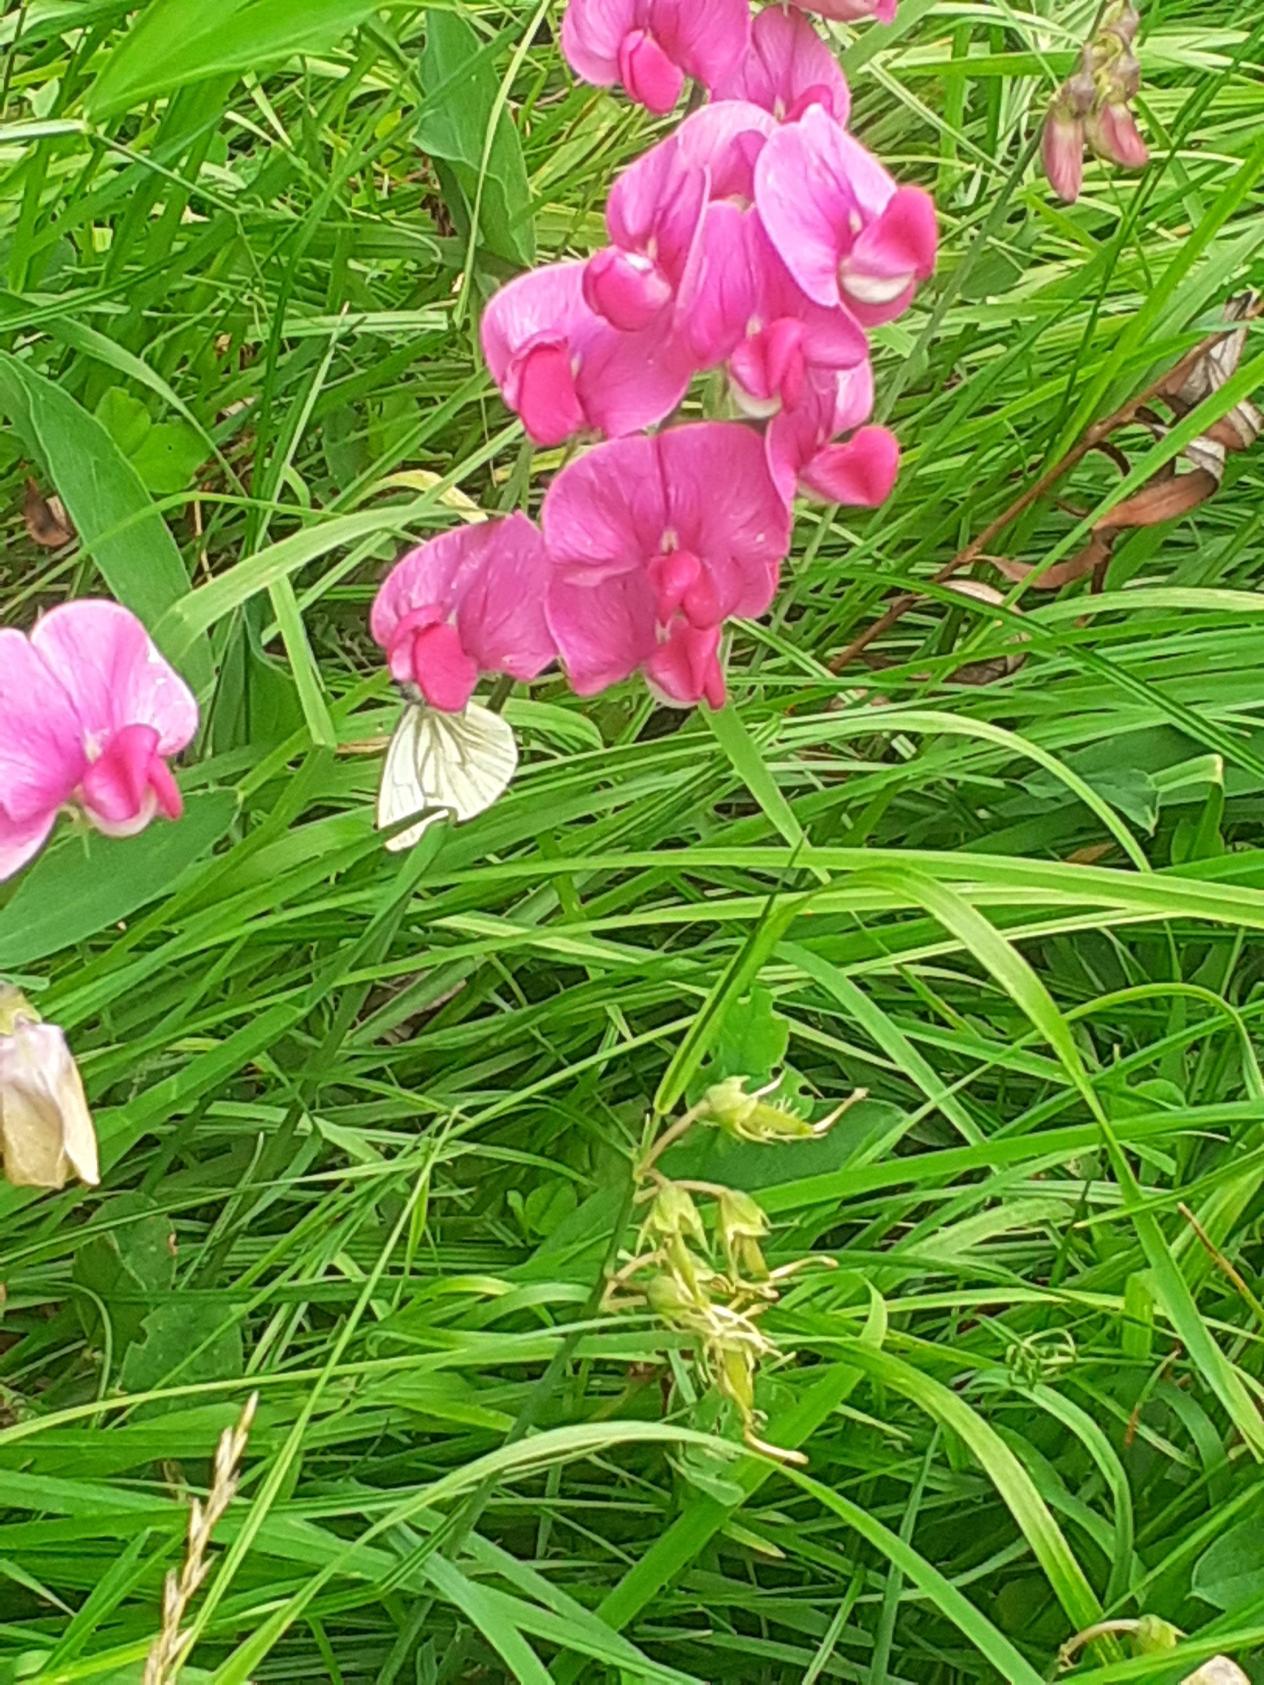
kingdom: Animalia
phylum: Arthropoda
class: Insecta
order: Lepidoptera
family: Pieridae
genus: Pieris
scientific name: Pieris napi
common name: Grønåret kålsommerfugl
